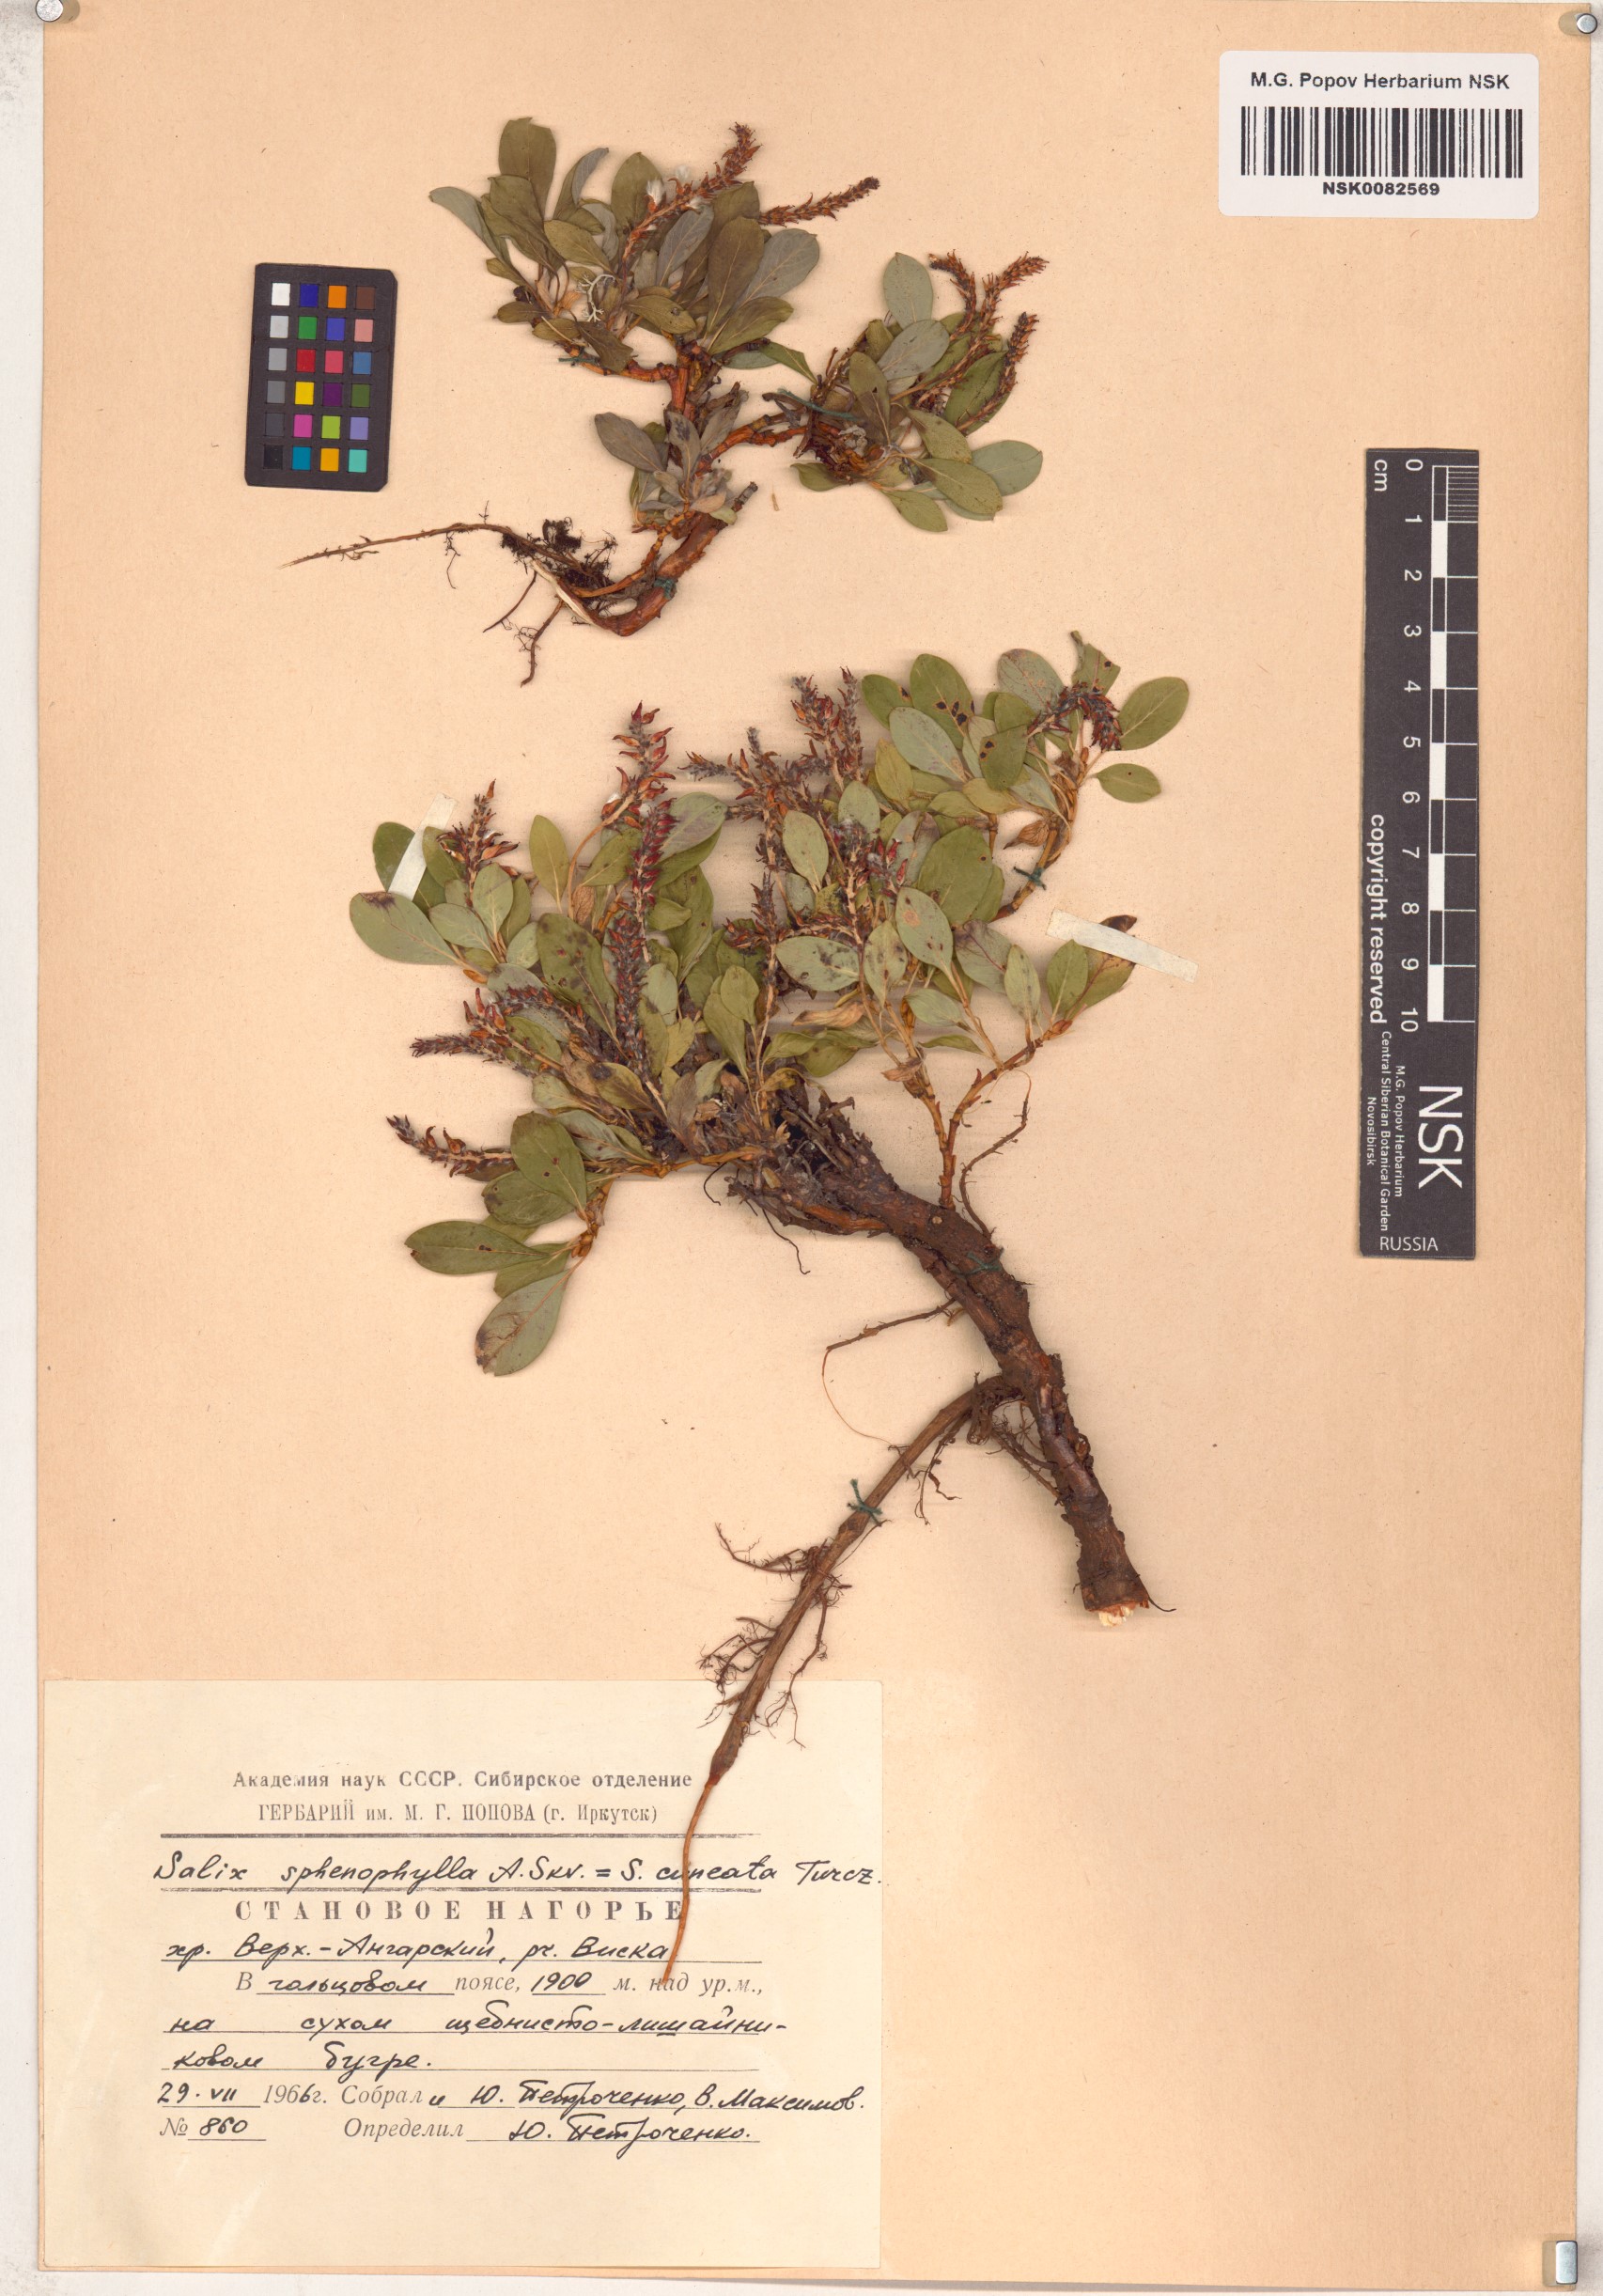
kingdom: Plantae
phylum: Tracheophyta
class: Magnoliopsida
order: Malpighiales
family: Salicaceae
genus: Salix
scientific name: Salix sphenophylla
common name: Wedge-leaved willow
